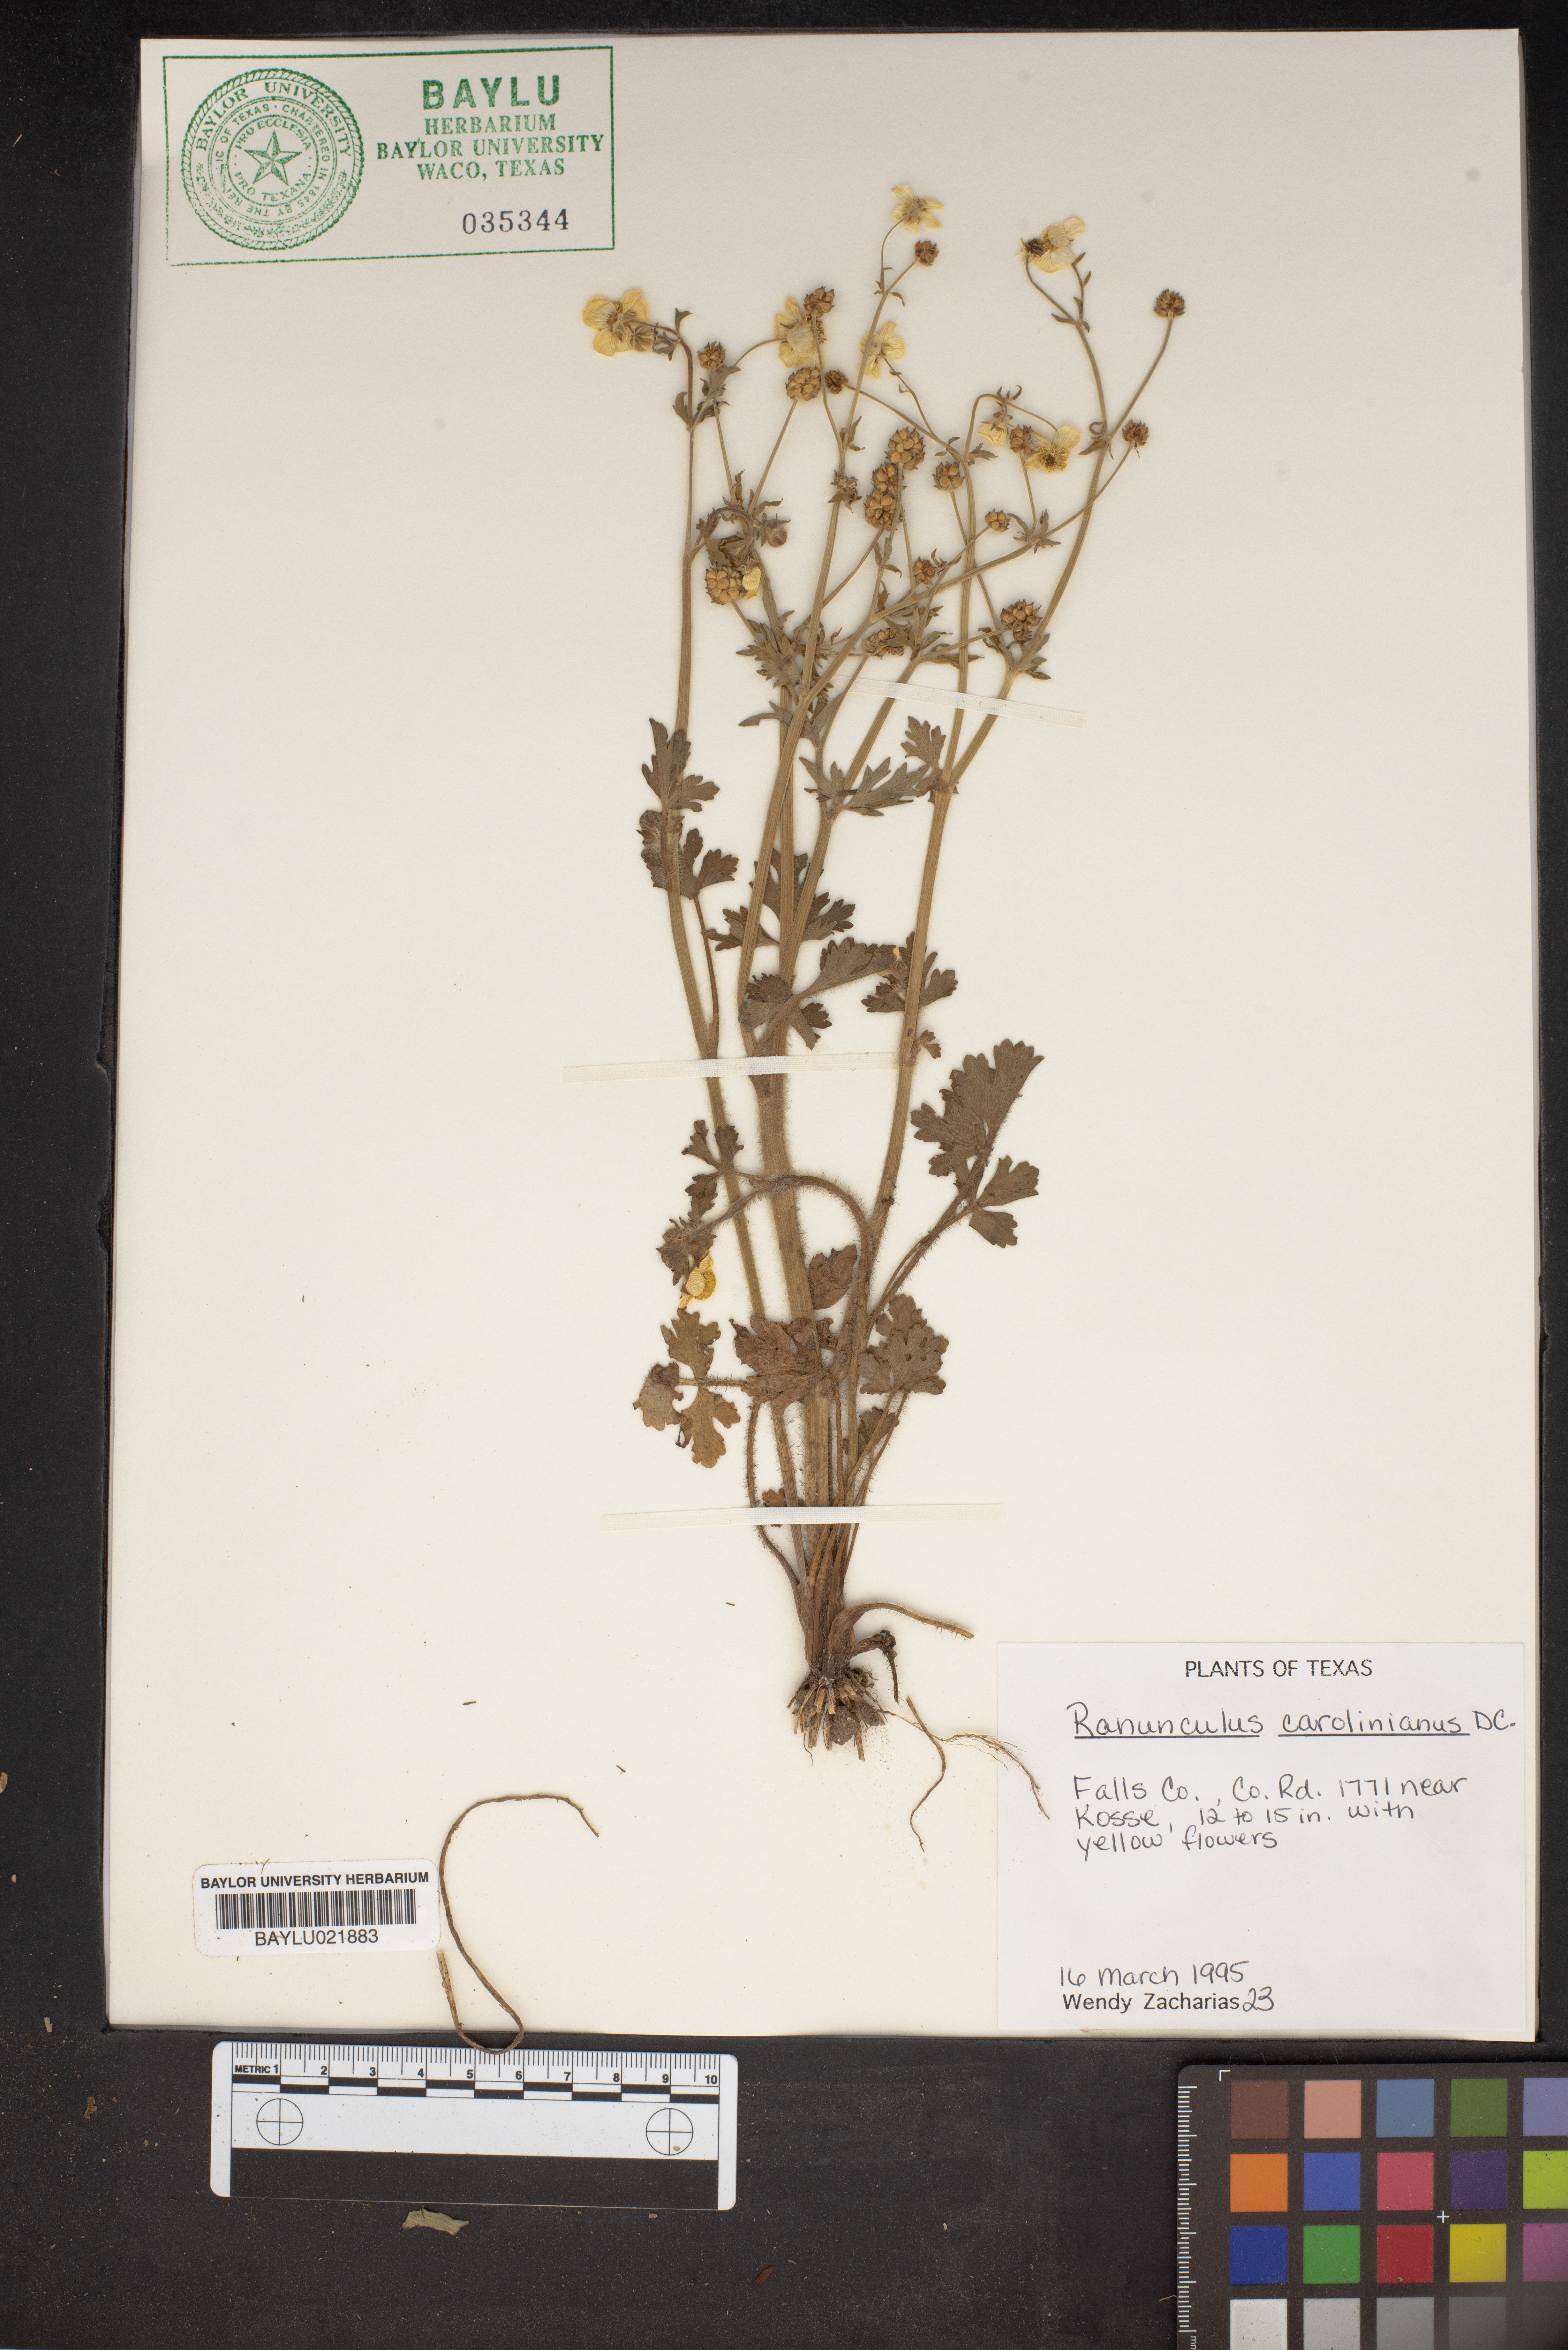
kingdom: Plantae
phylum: Tracheophyta
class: Magnoliopsida
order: Ranunculales
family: Ranunculaceae
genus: Ranunculus
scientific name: Ranunculus hispidus
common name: Bristly buttercup
